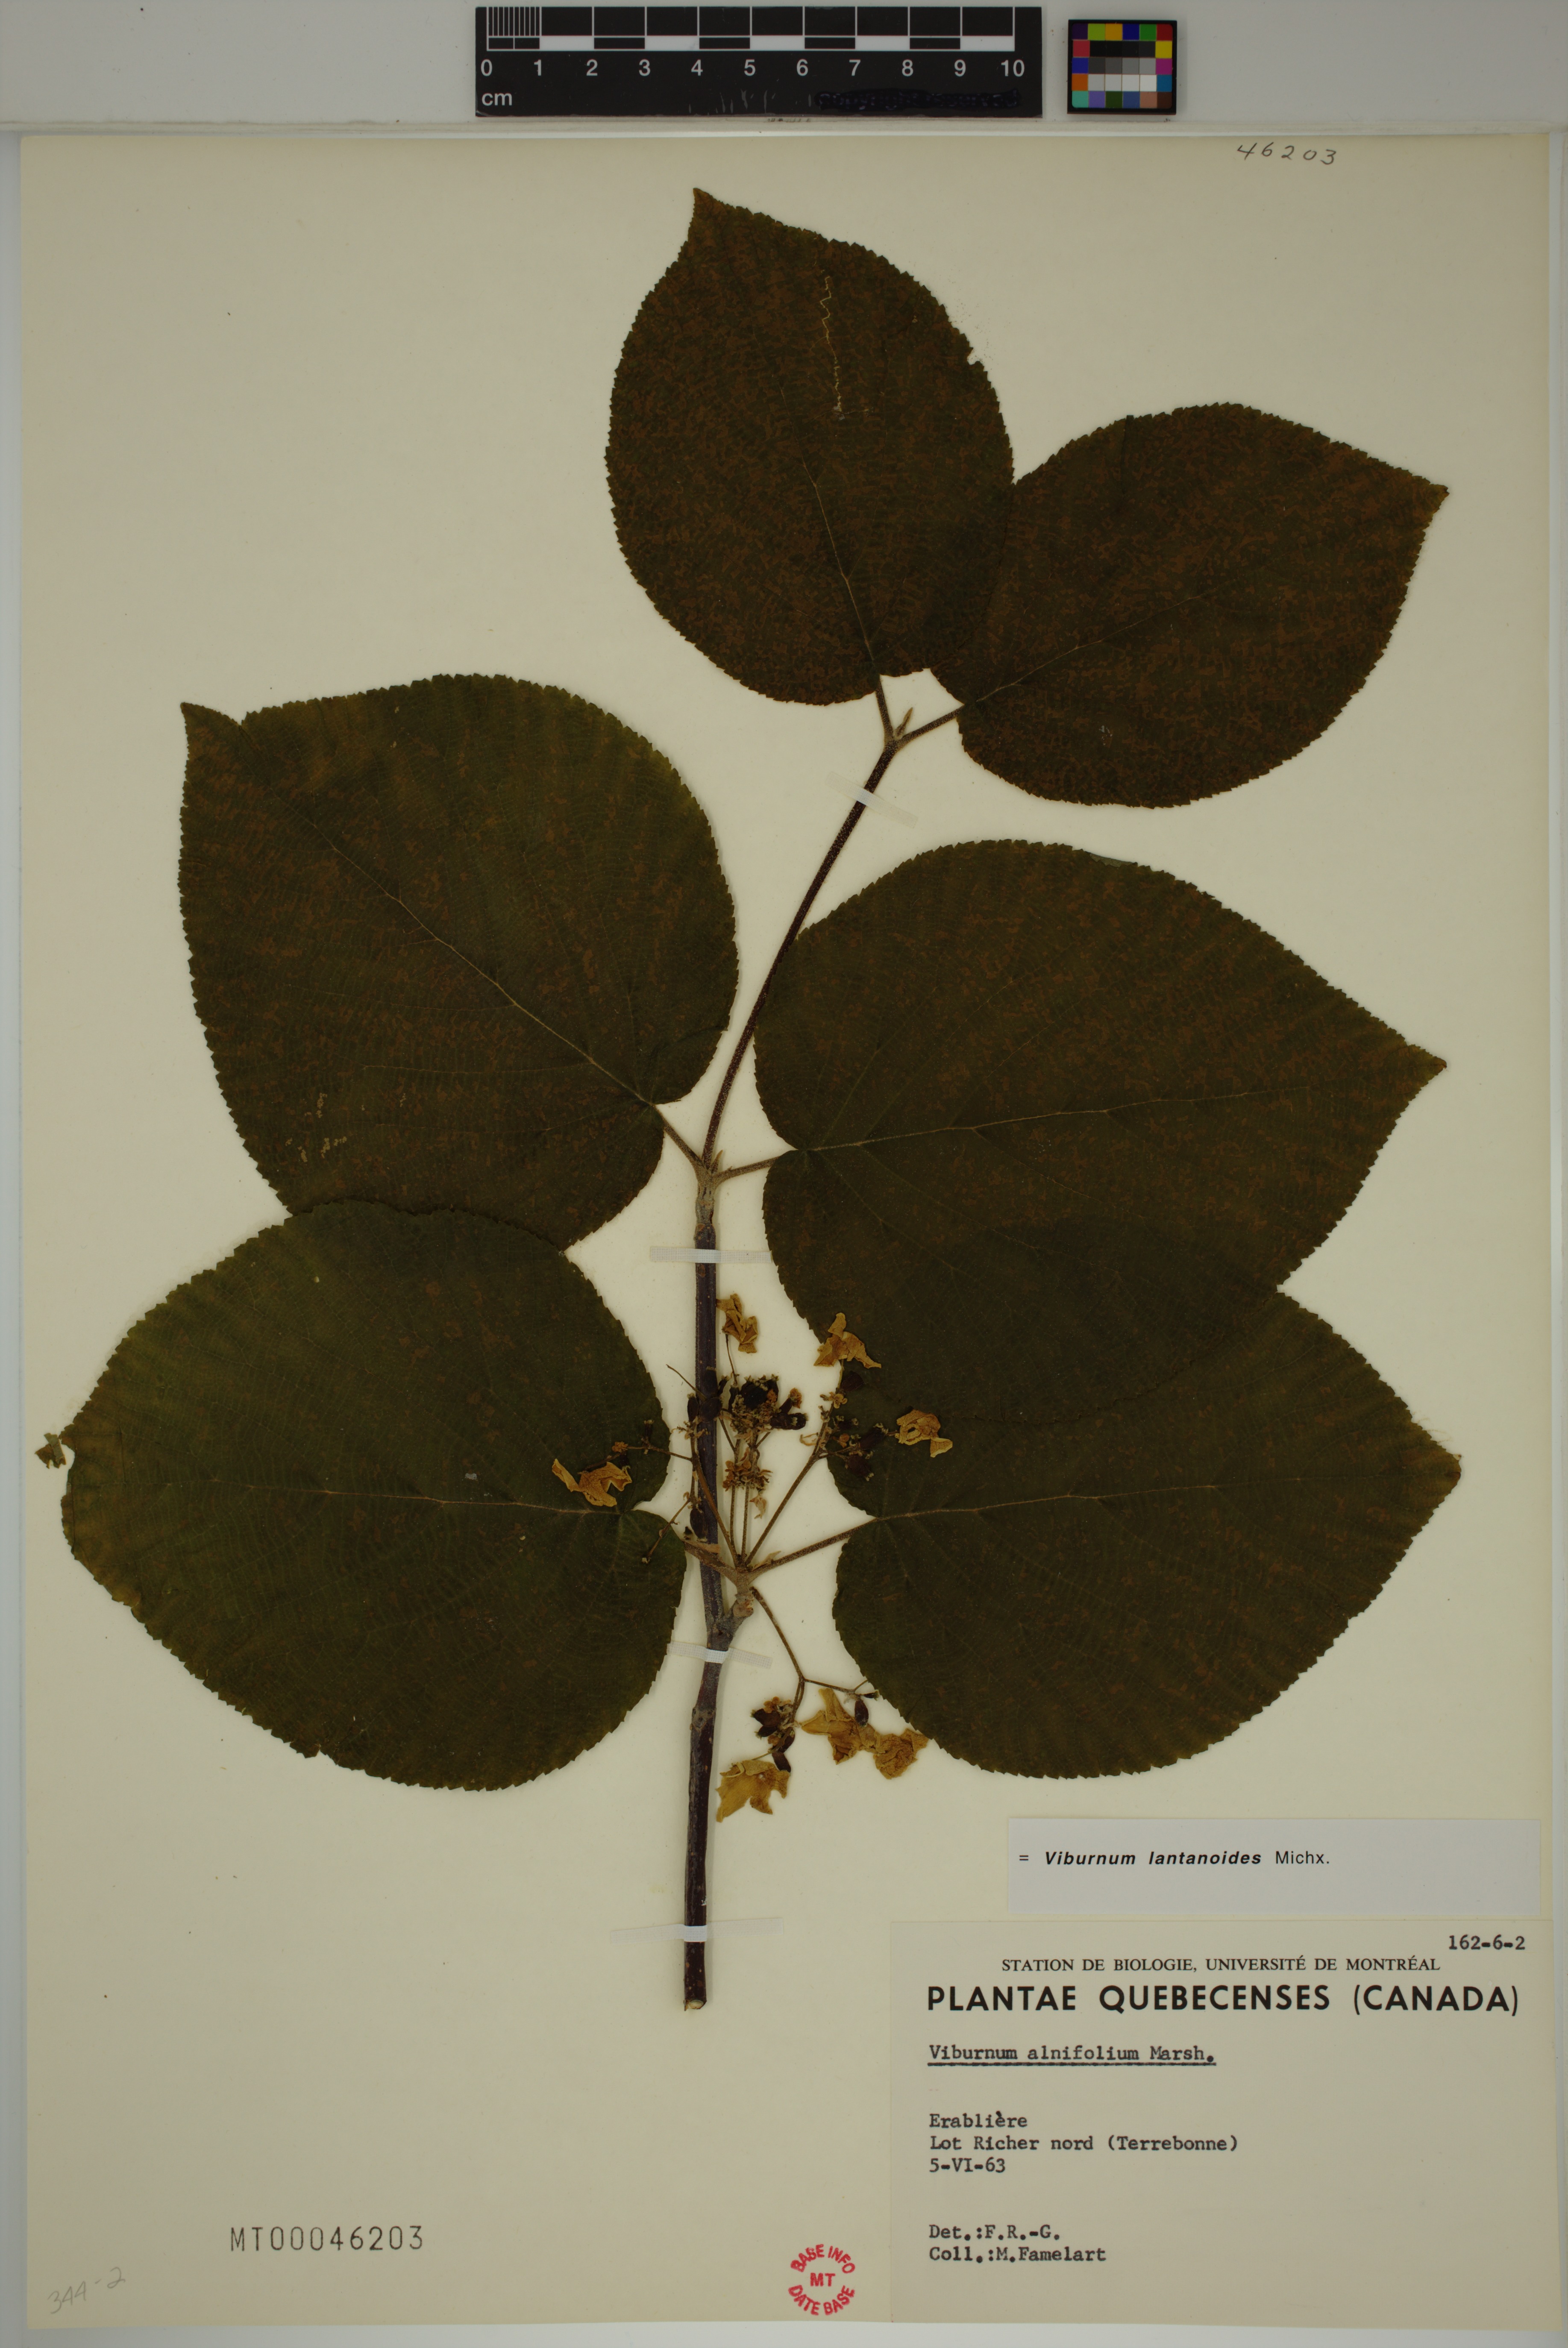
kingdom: Plantae
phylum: Tracheophyta
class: Magnoliopsida
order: Dipsacales
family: Viburnaceae
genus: Viburnum
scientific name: Viburnum lantanoides
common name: Hobblebush
